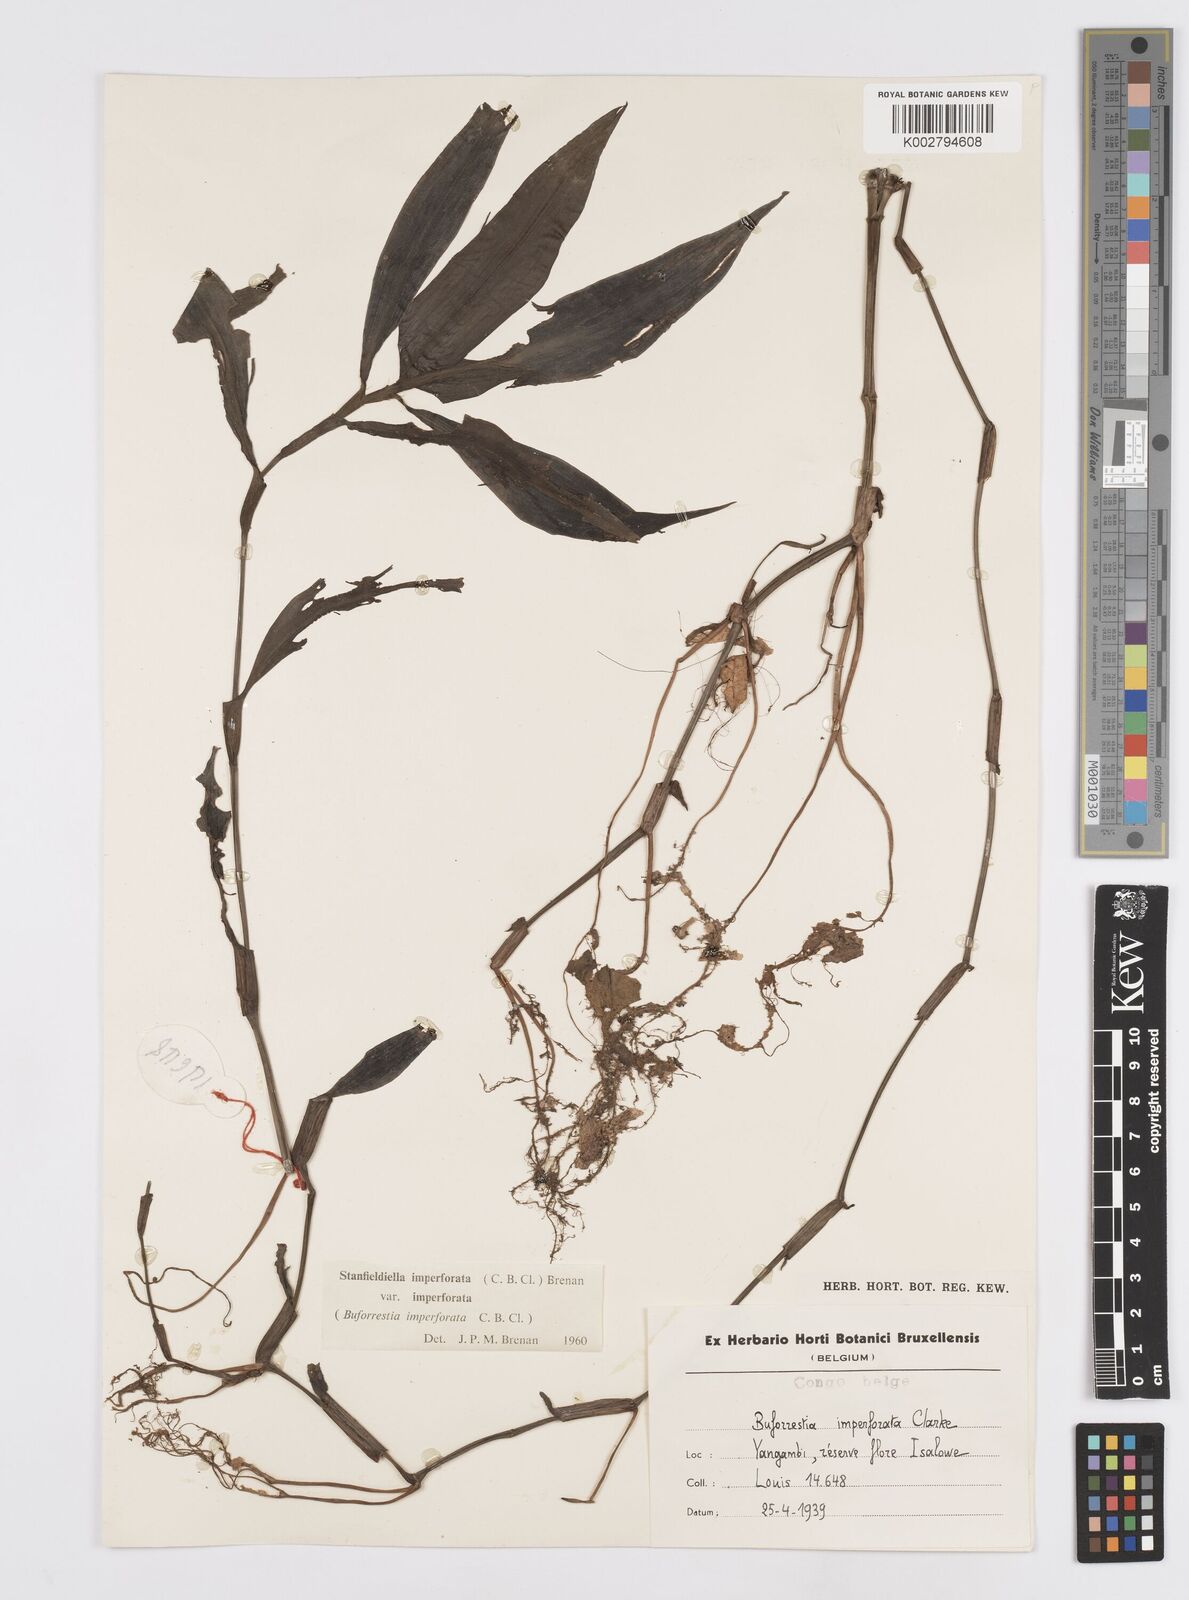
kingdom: Plantae
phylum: Tracheophyta
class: Liliopsida
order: Commelinales
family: Commelinaceae
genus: Stanfieldiella
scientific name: Stanfieldiella imperforata
